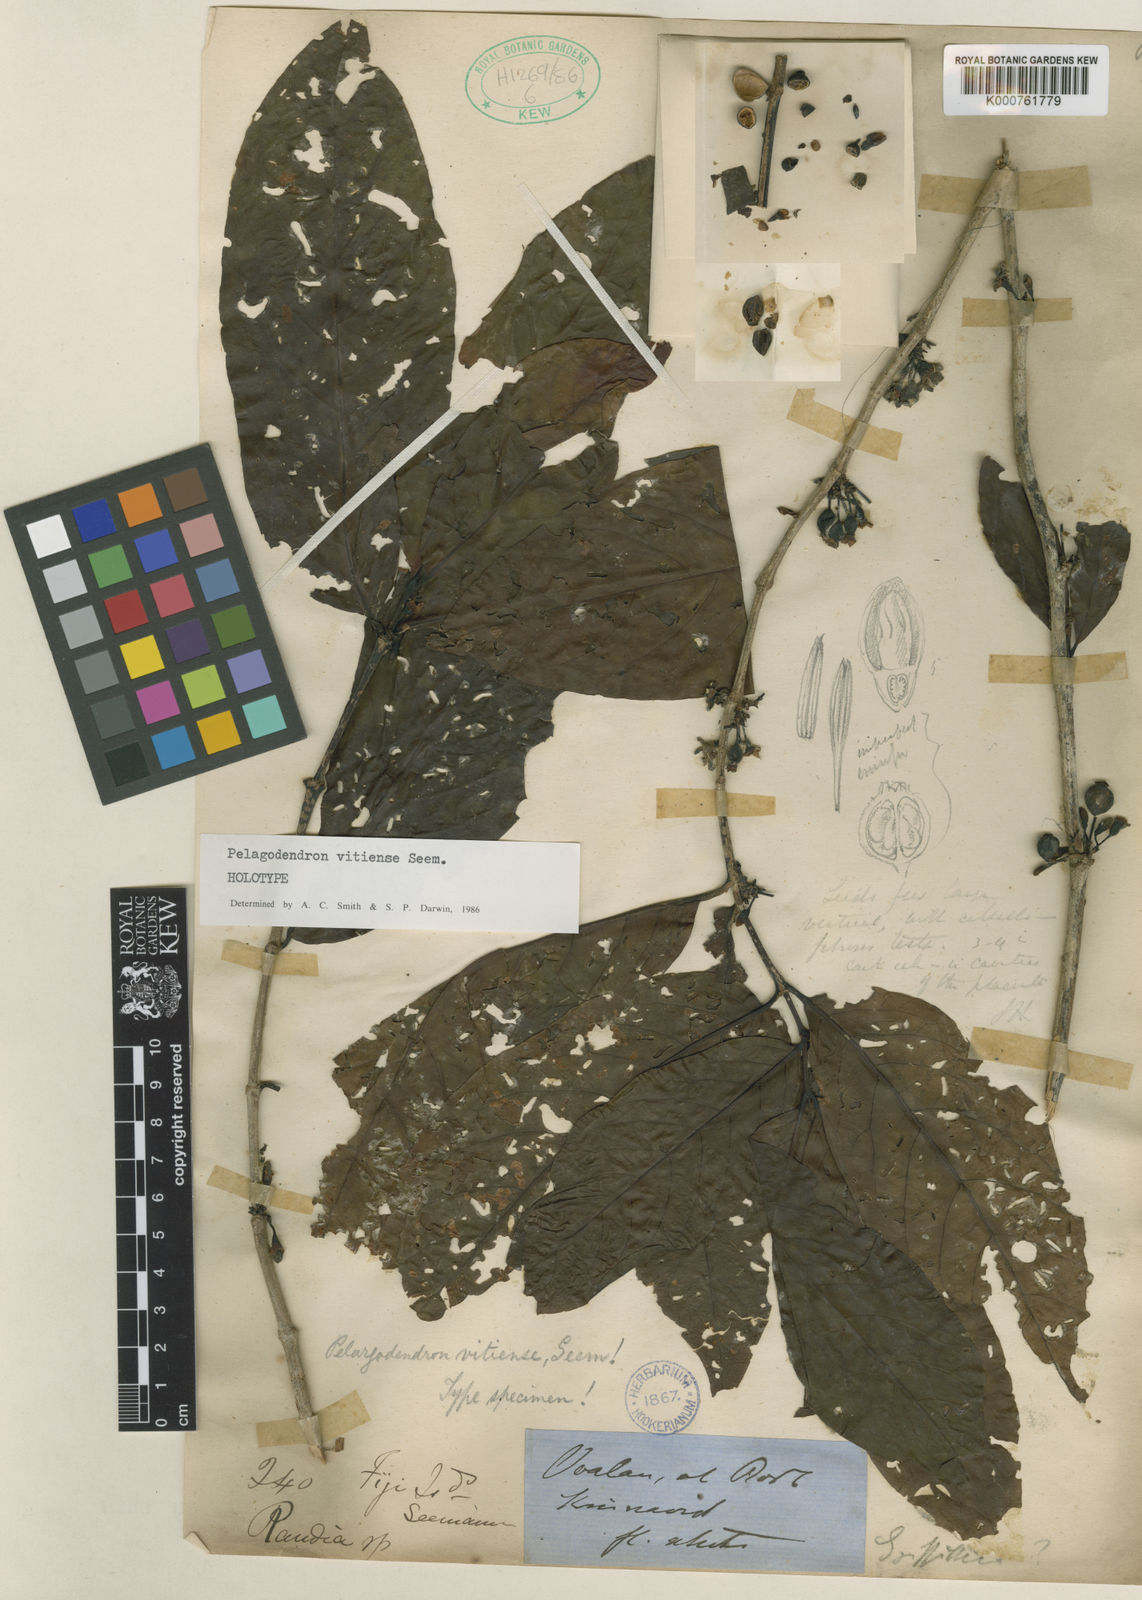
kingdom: Plantae
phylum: Tracheophyta
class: Magnoliopsida
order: Gentianales
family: Rubiaceae
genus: Aidia
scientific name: Aidia vitiensis
